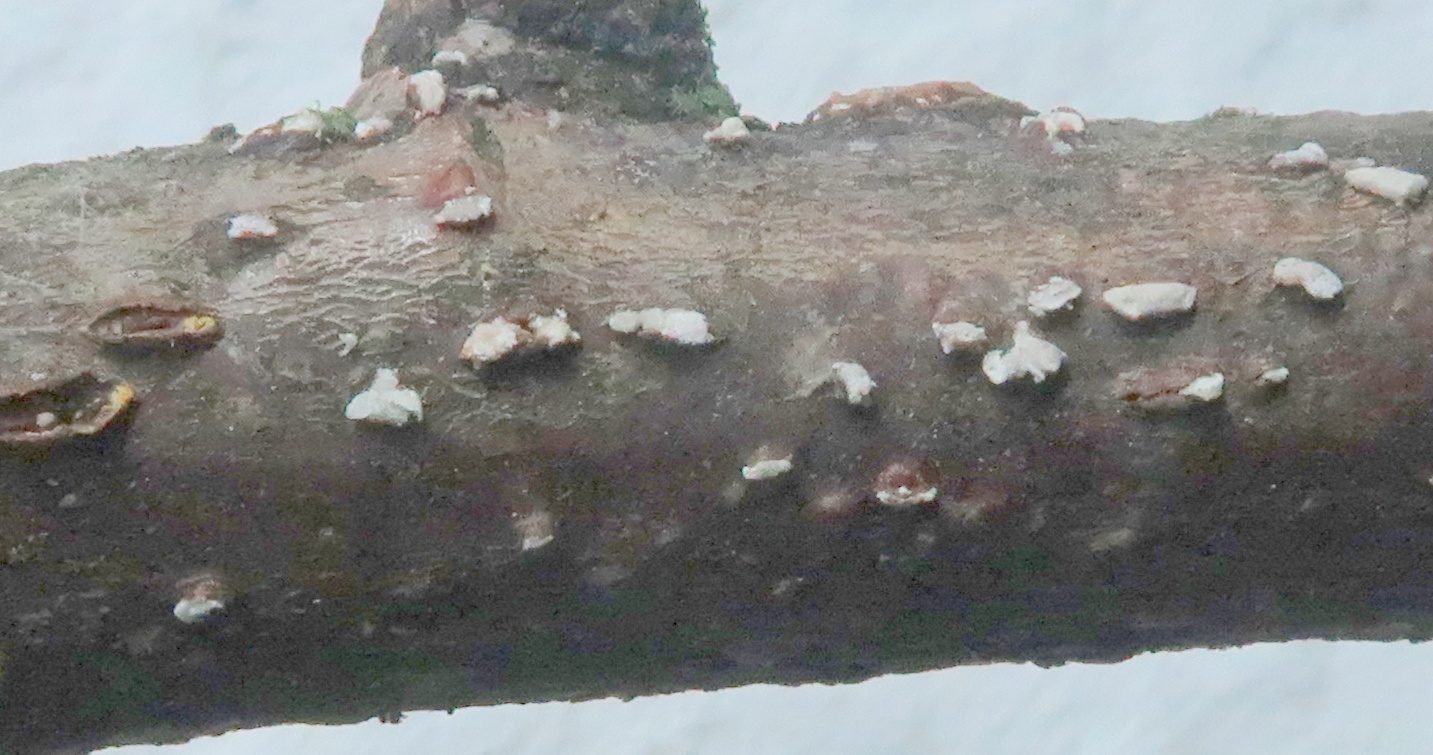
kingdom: Fungi
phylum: Ascomycota
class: Sordariomycetes
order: Hypocreales
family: Nectriaceae
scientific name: Nectriaceae
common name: cinnobersvampfamilien
